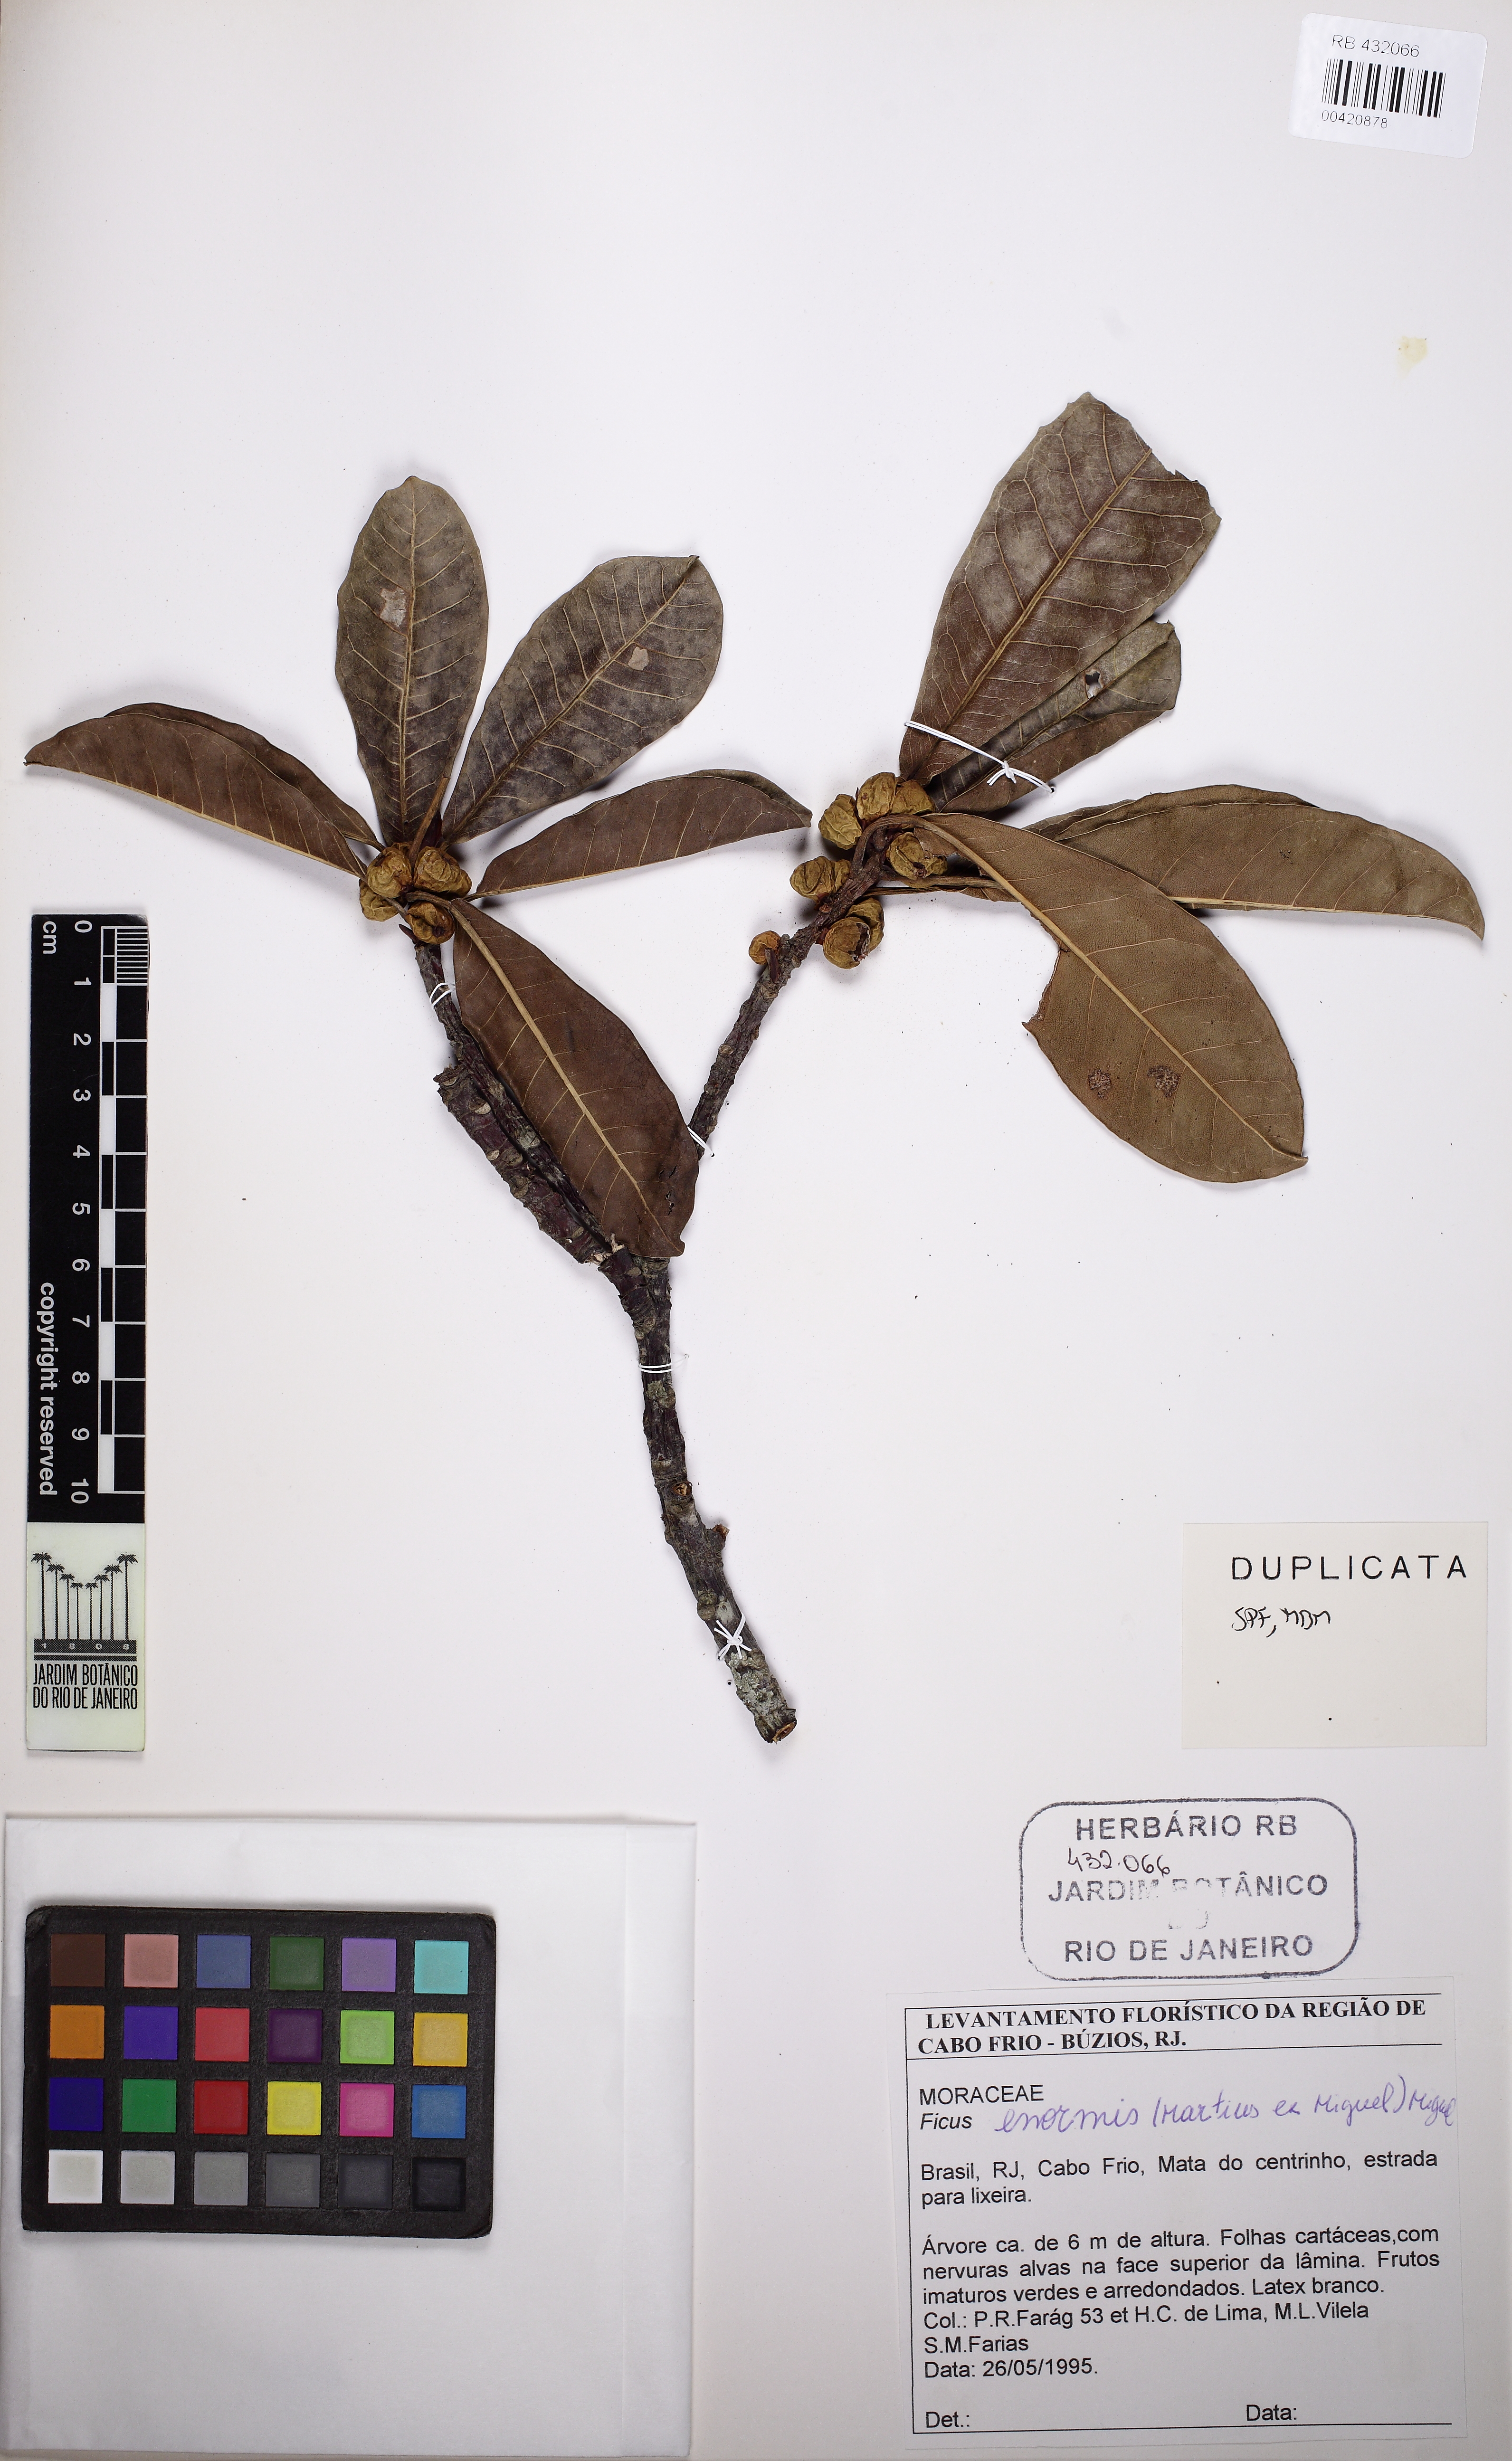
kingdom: Plantae
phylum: Tracheophyta
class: Magnoliopsida
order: Rosales
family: Moraceae
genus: Ficus
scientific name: Ficus enormis
